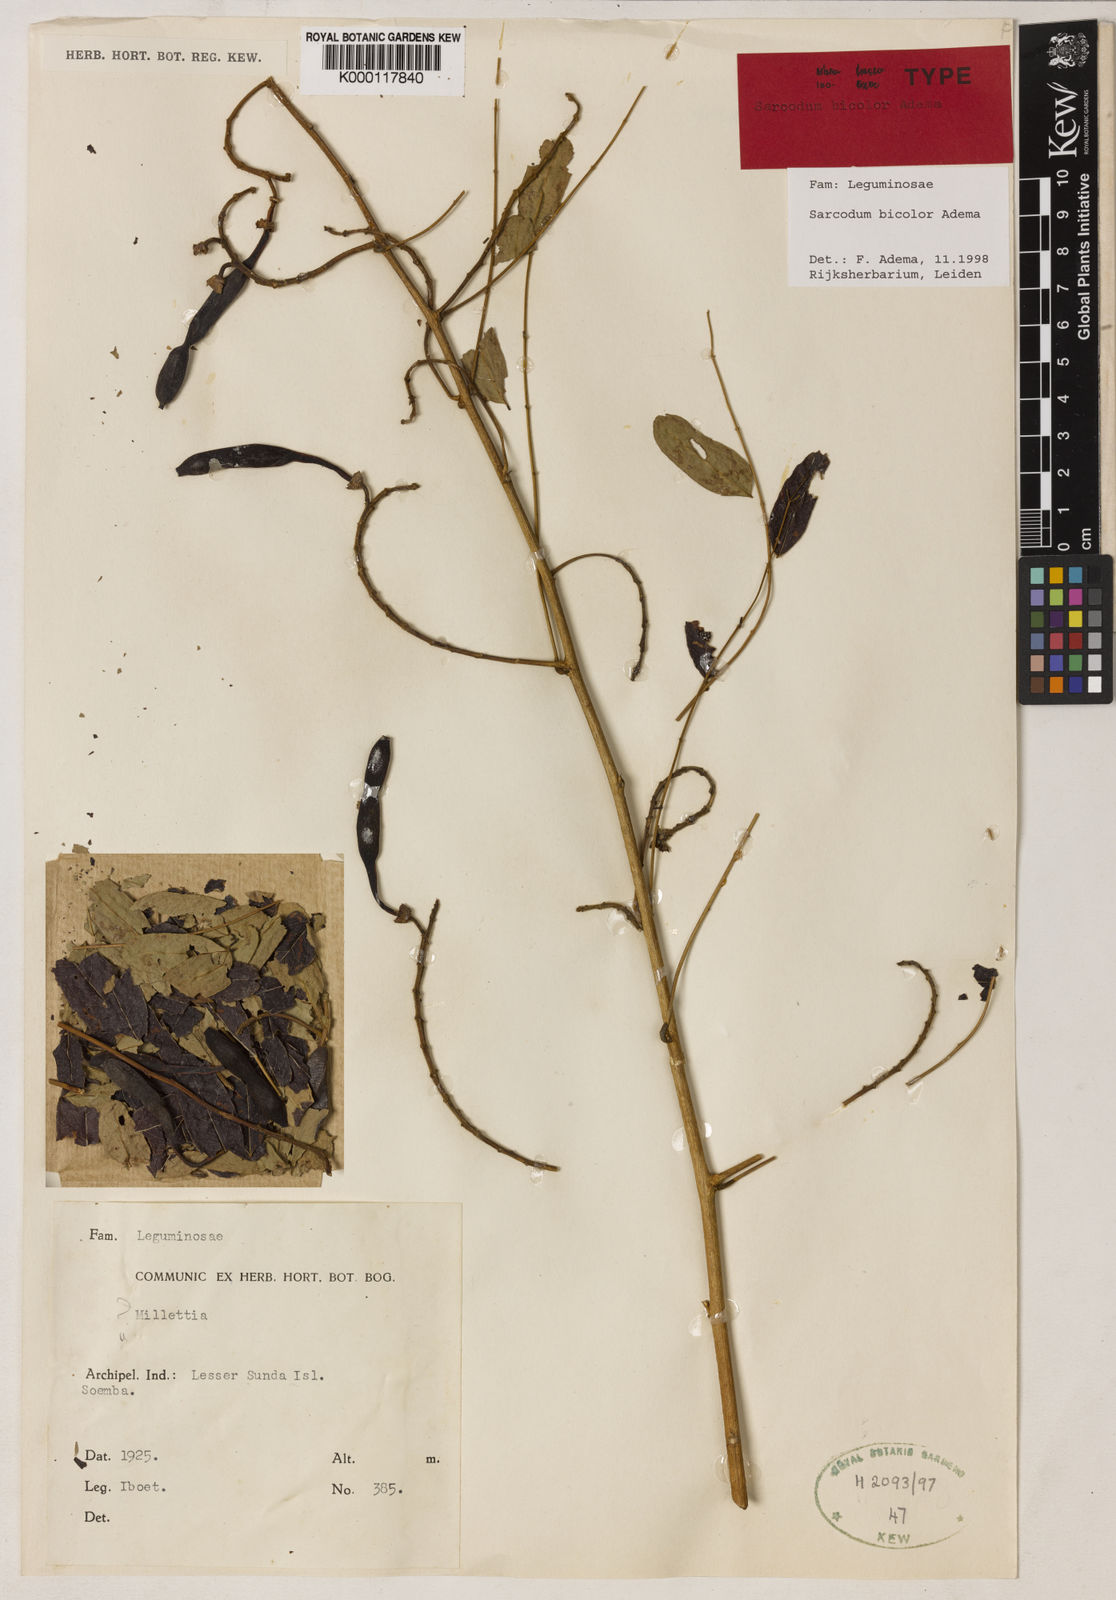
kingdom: Plantae
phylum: Tracheophyta
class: Magnoliopsida
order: Fabales
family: Fabaceae
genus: Sarcodum
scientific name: Sarcodum bicolor
